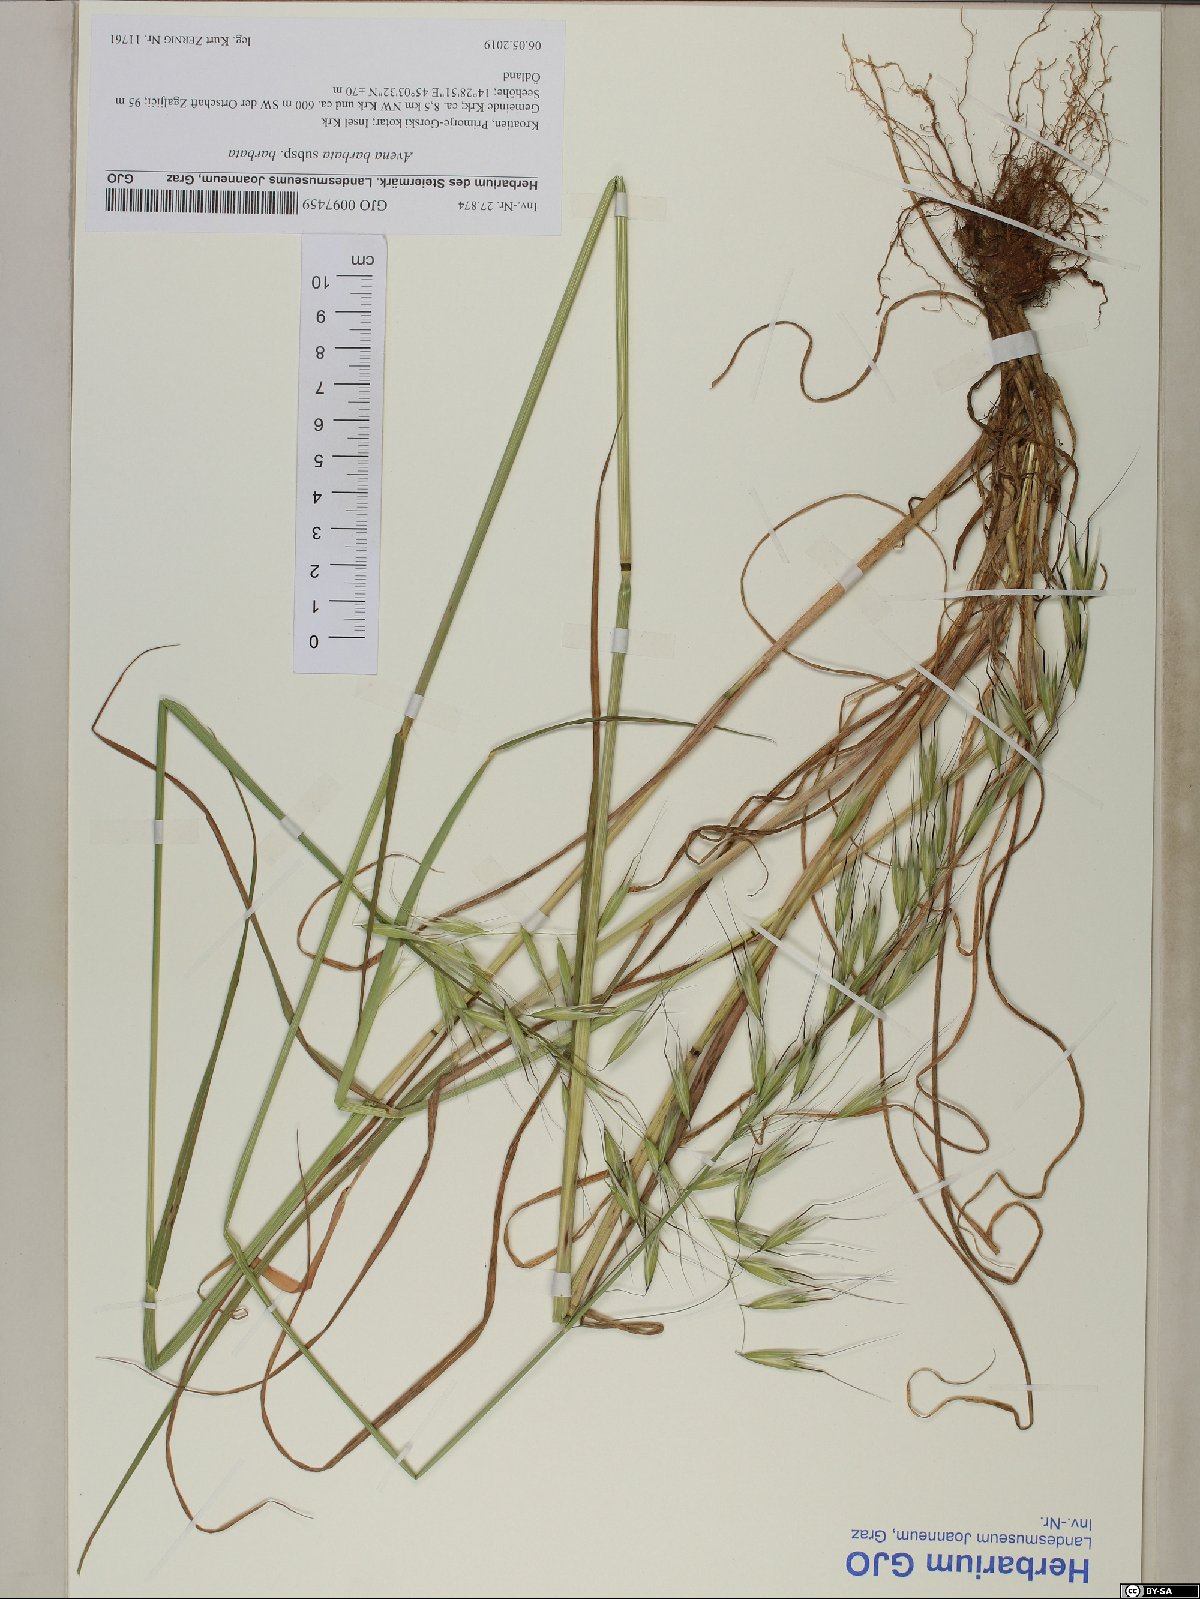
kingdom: Plantae
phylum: Tracheophyta
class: Liliopsida
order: Poales
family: Poaceae
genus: Avena
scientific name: Avena barbata
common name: Slender oat
